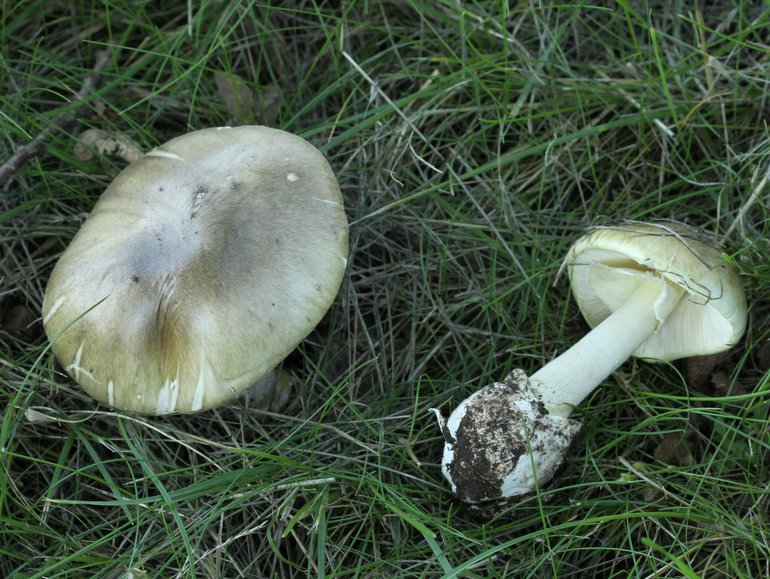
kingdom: Fungi
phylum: Basidiomycota
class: Agaricomycetes
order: Agaricales
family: Amanitaceae
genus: Amanita
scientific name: Amanita phalloides
